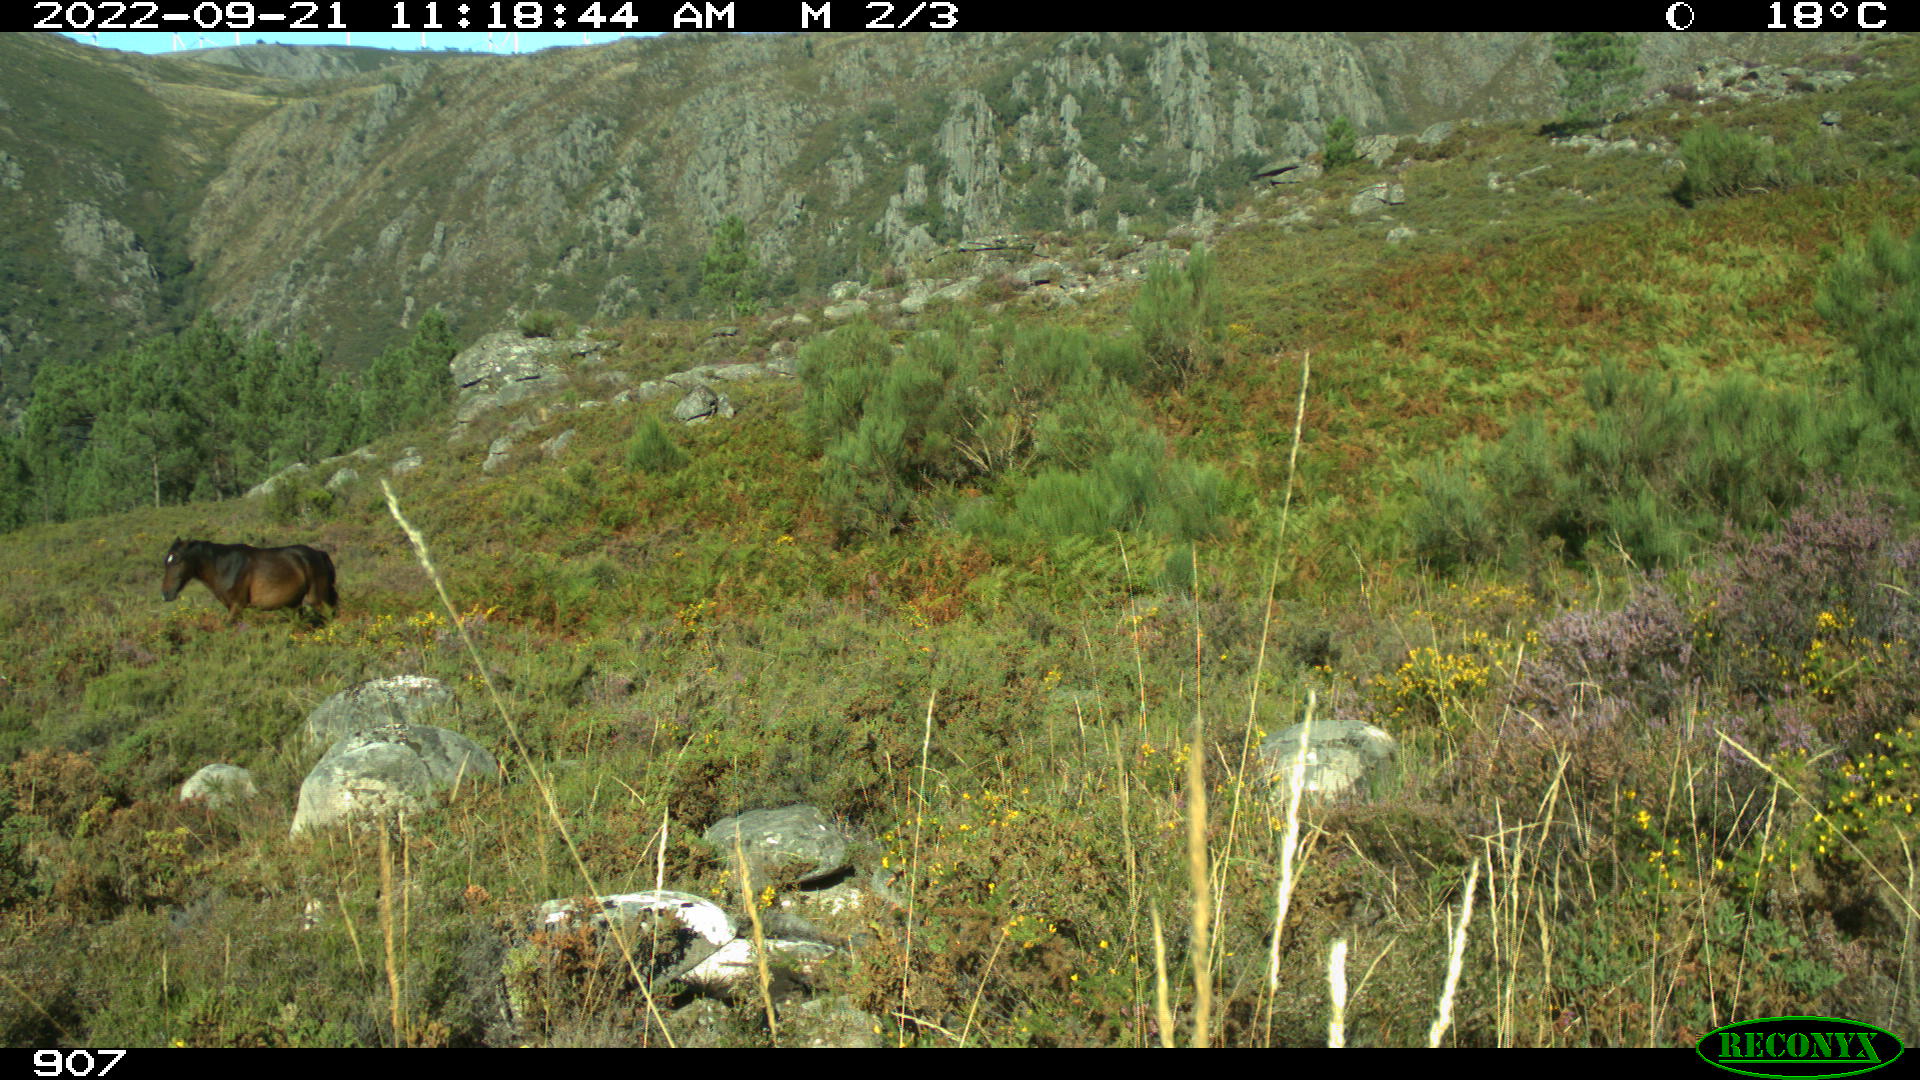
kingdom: Animalia
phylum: Chordata
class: Mammalia
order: Perissodactyla
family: Equidae
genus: Equus
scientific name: Equus caballus
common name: Horse
